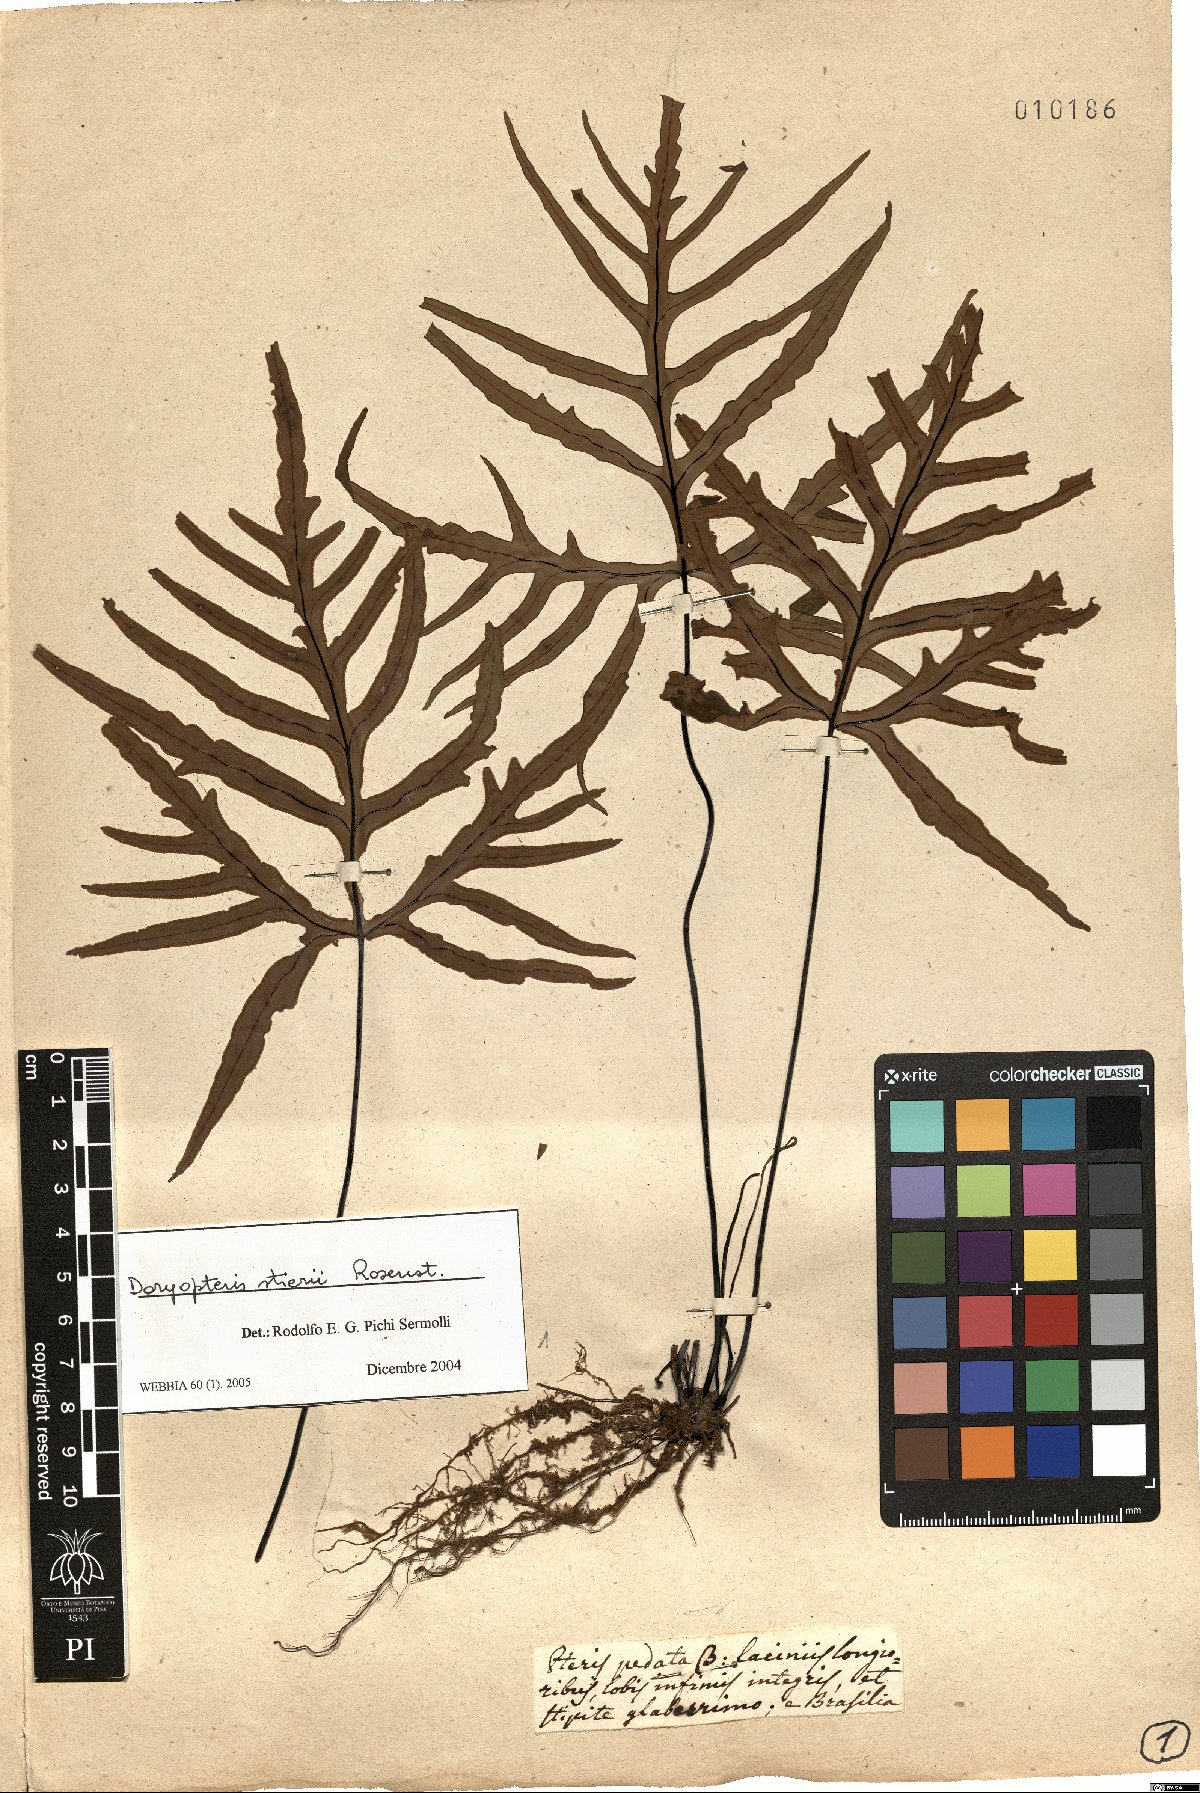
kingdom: Plantae
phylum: Tracheophyta
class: Polypodiopsida
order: Polypodiales
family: Pteridaceae
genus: Doryopteris
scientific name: Doryopteris stieri
